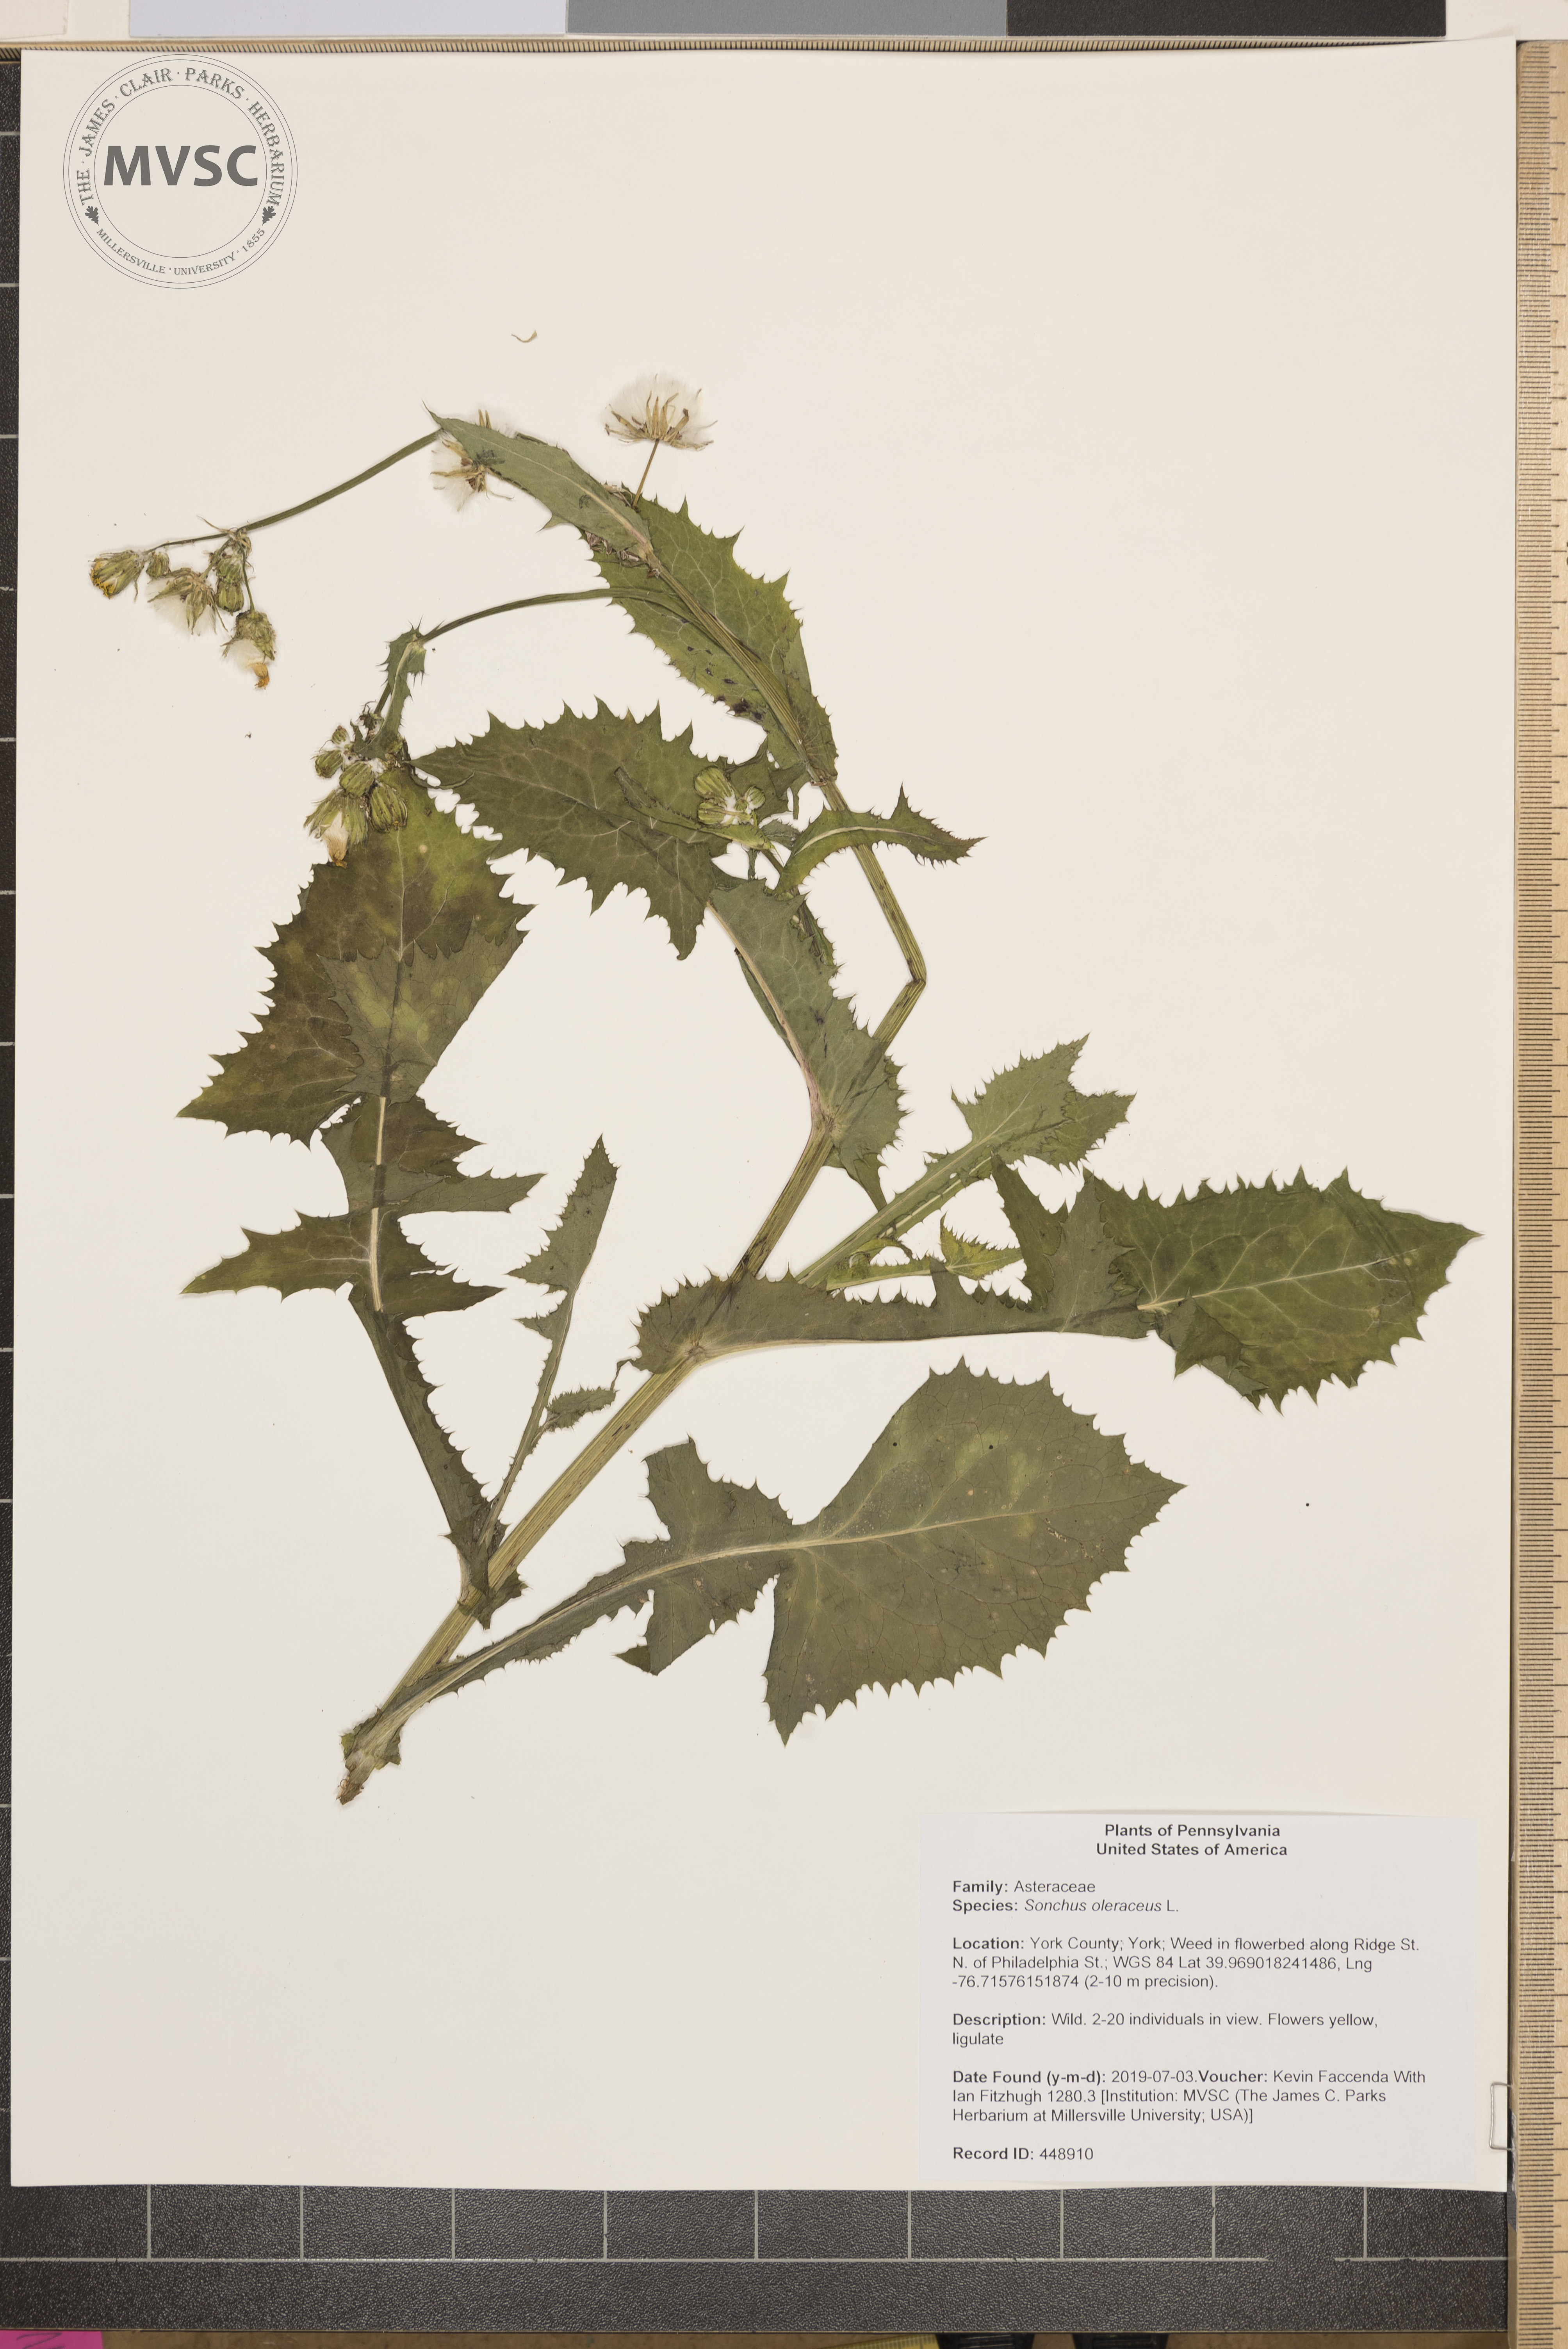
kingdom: Plantae
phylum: Tracheophyta
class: Magnoliopsida
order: Asterales
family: Asteraceae
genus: Sonchus
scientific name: Sonchus oleraceus
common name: Common sowthistle
